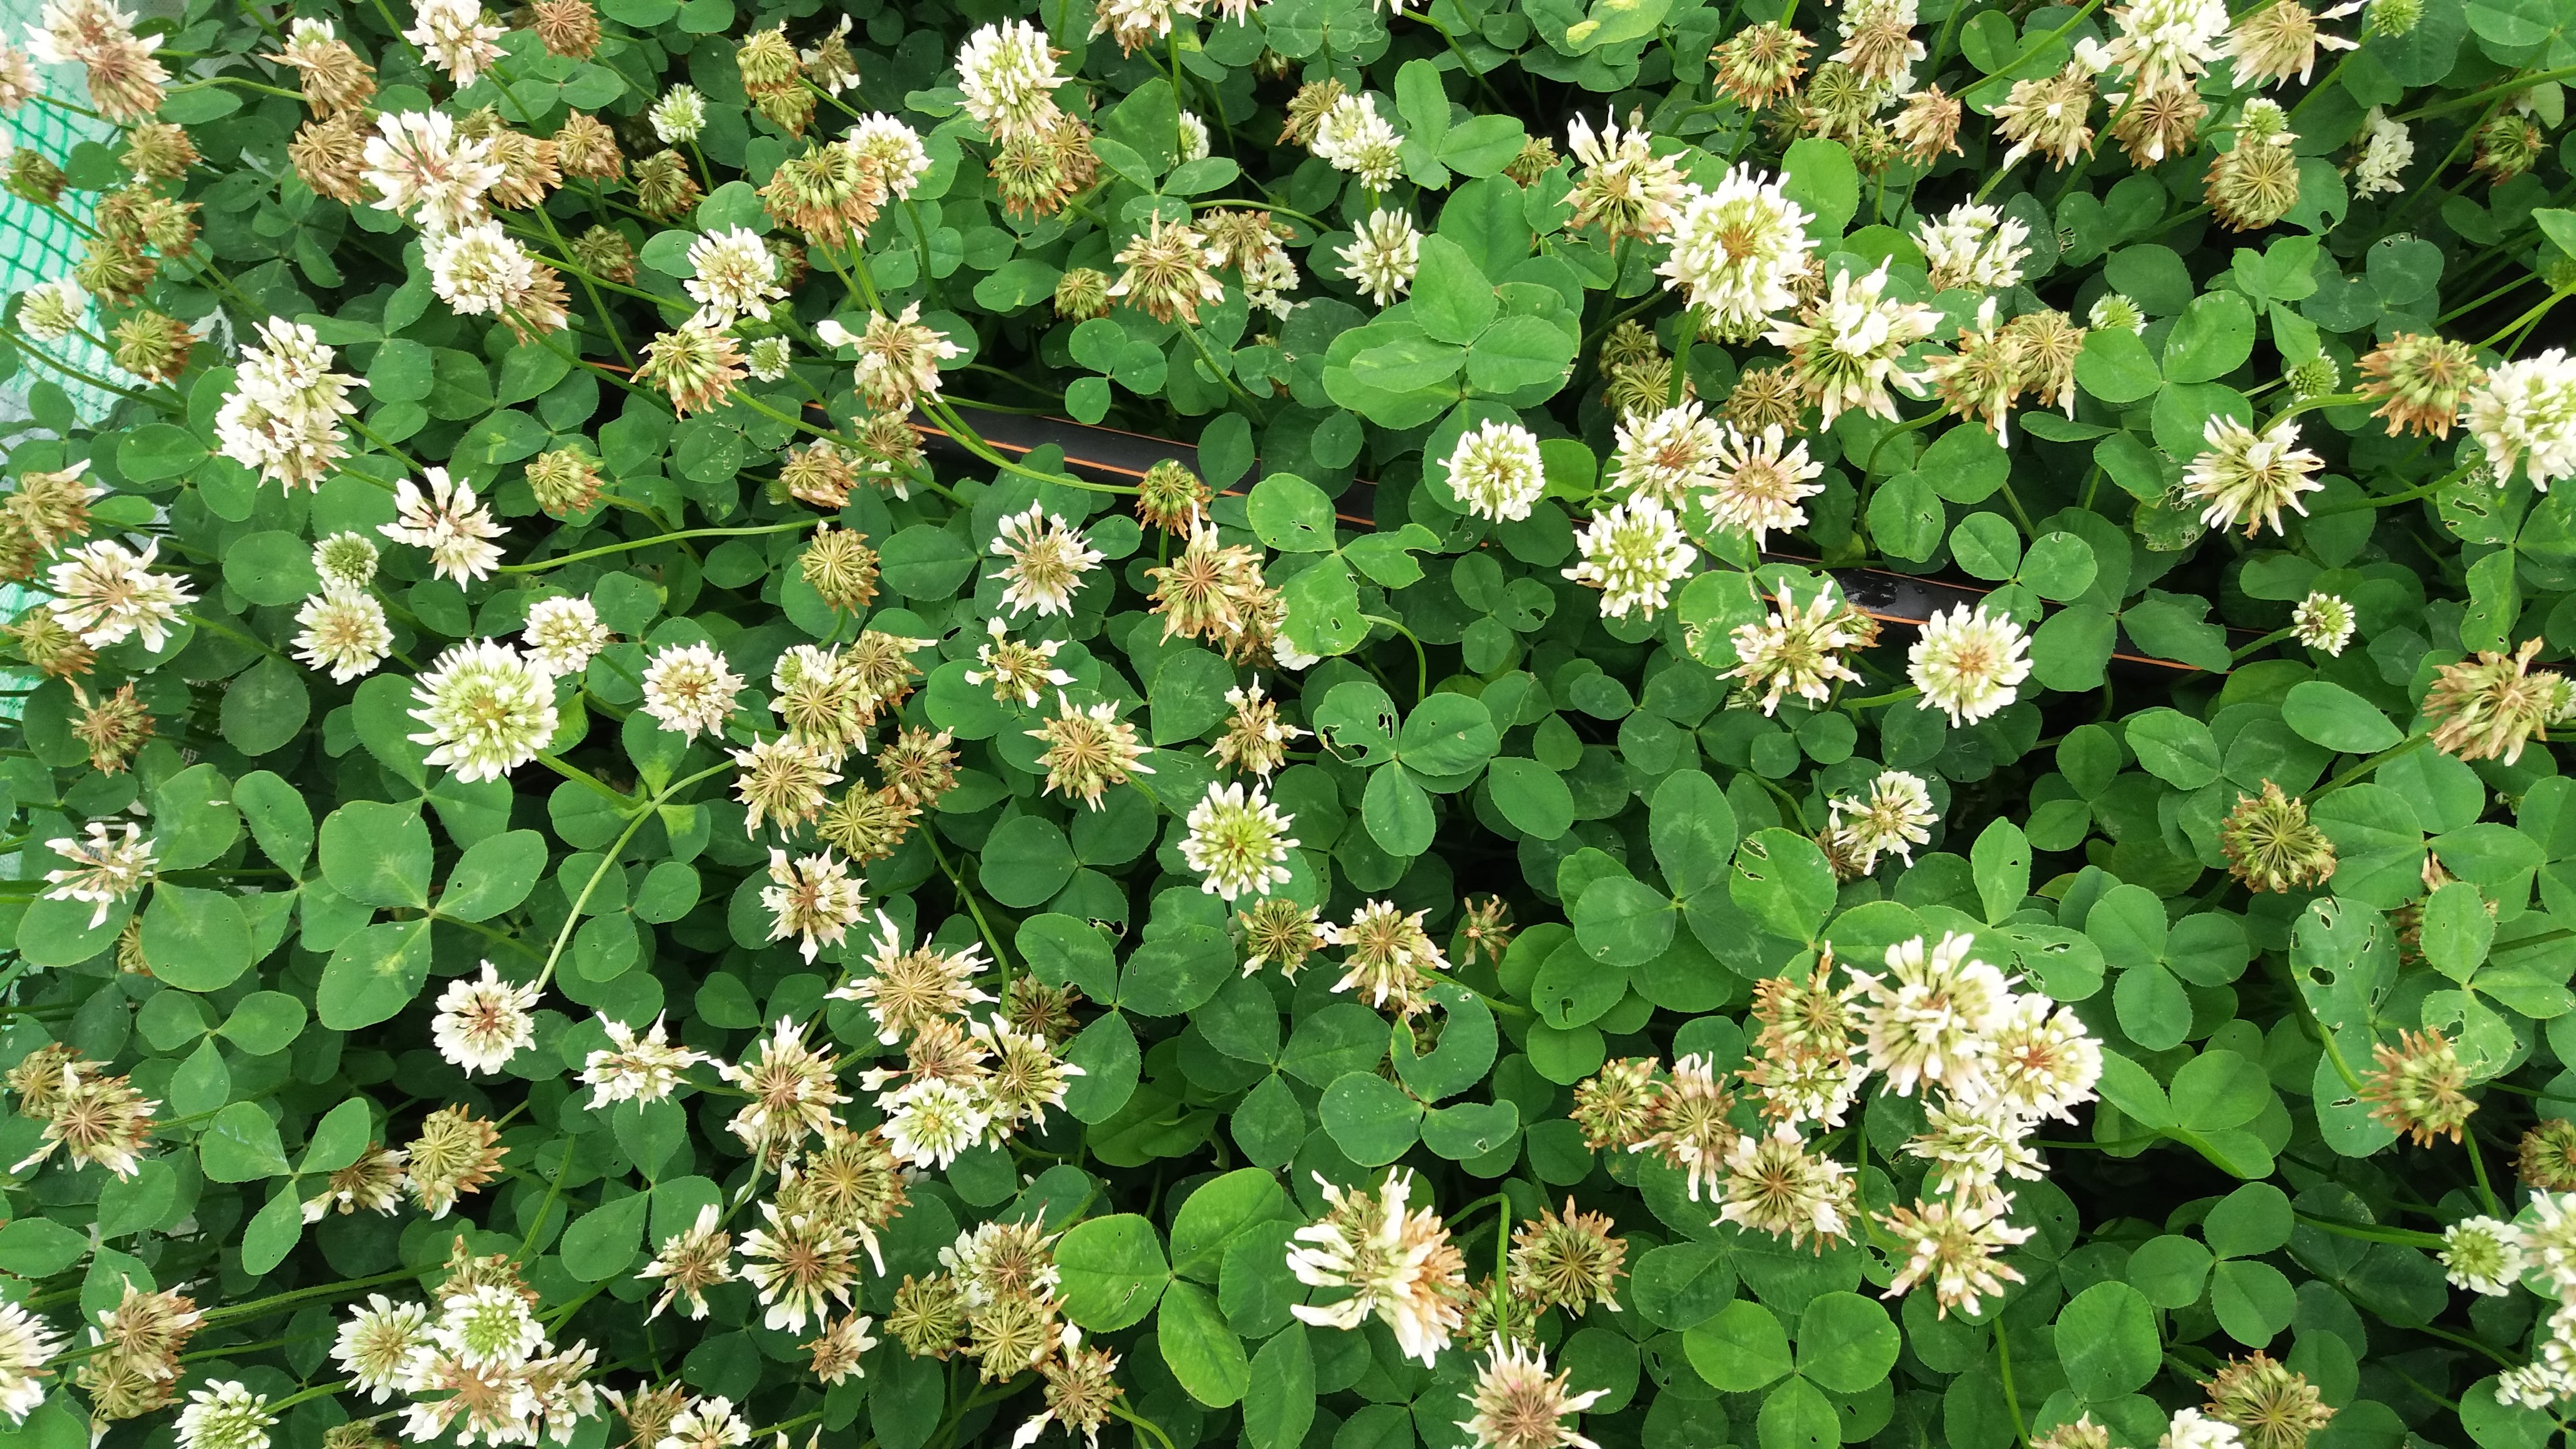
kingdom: Plantae
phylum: Tracheophyta
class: Magnoliopsida
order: Fabales
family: Fabaceae
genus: Trifolium
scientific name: Trifolium repens
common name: White clover
